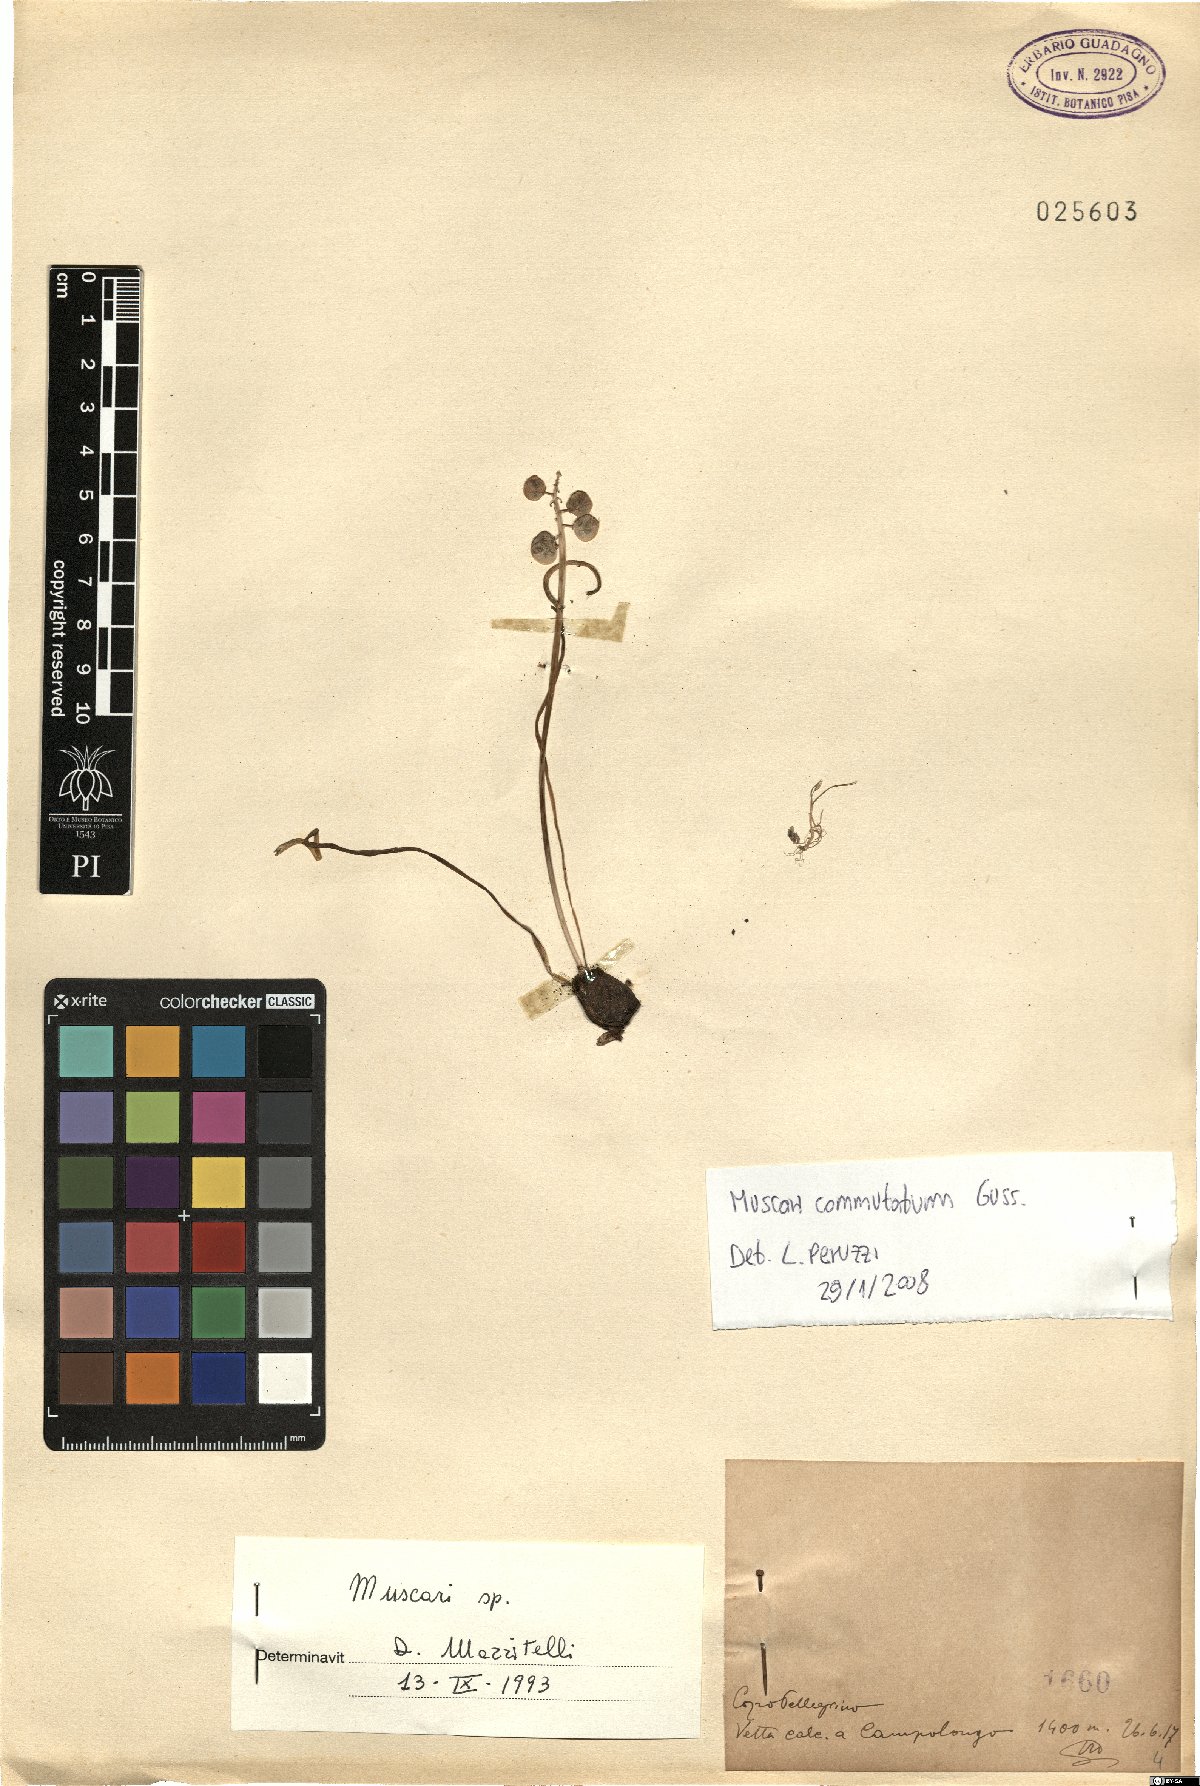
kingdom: Plantae
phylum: Tracheophyta
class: Liliopsida
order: Asparagales
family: Asparagaceae
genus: Muscari
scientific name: Muscari commutatum
